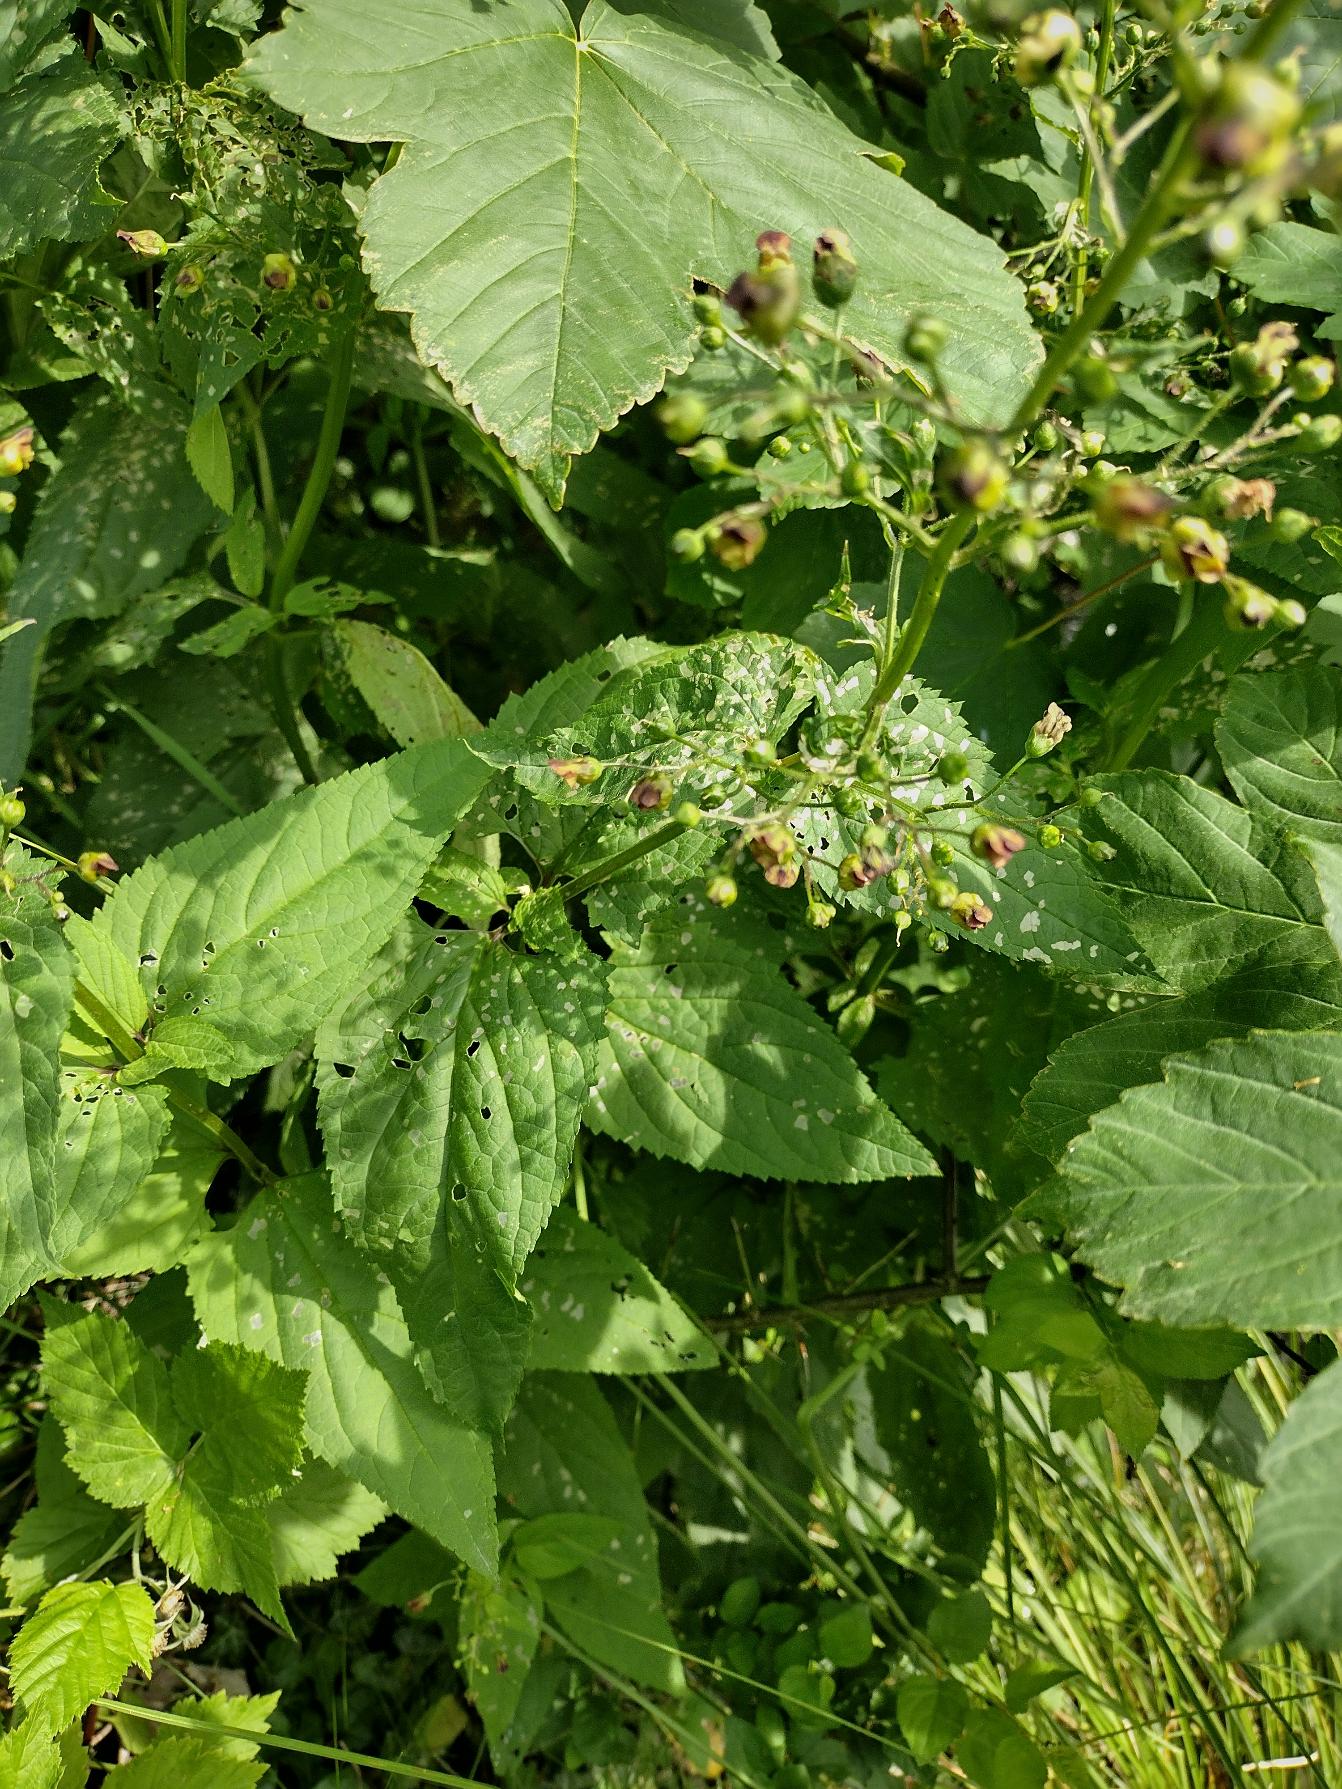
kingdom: Plantae
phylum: Tracheophyta
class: Magnoliopsida
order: Lamiales
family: Scrophulariaceae
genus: Scrophularia
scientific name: Scrophularia nodosa
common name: Knoldet brunrod
